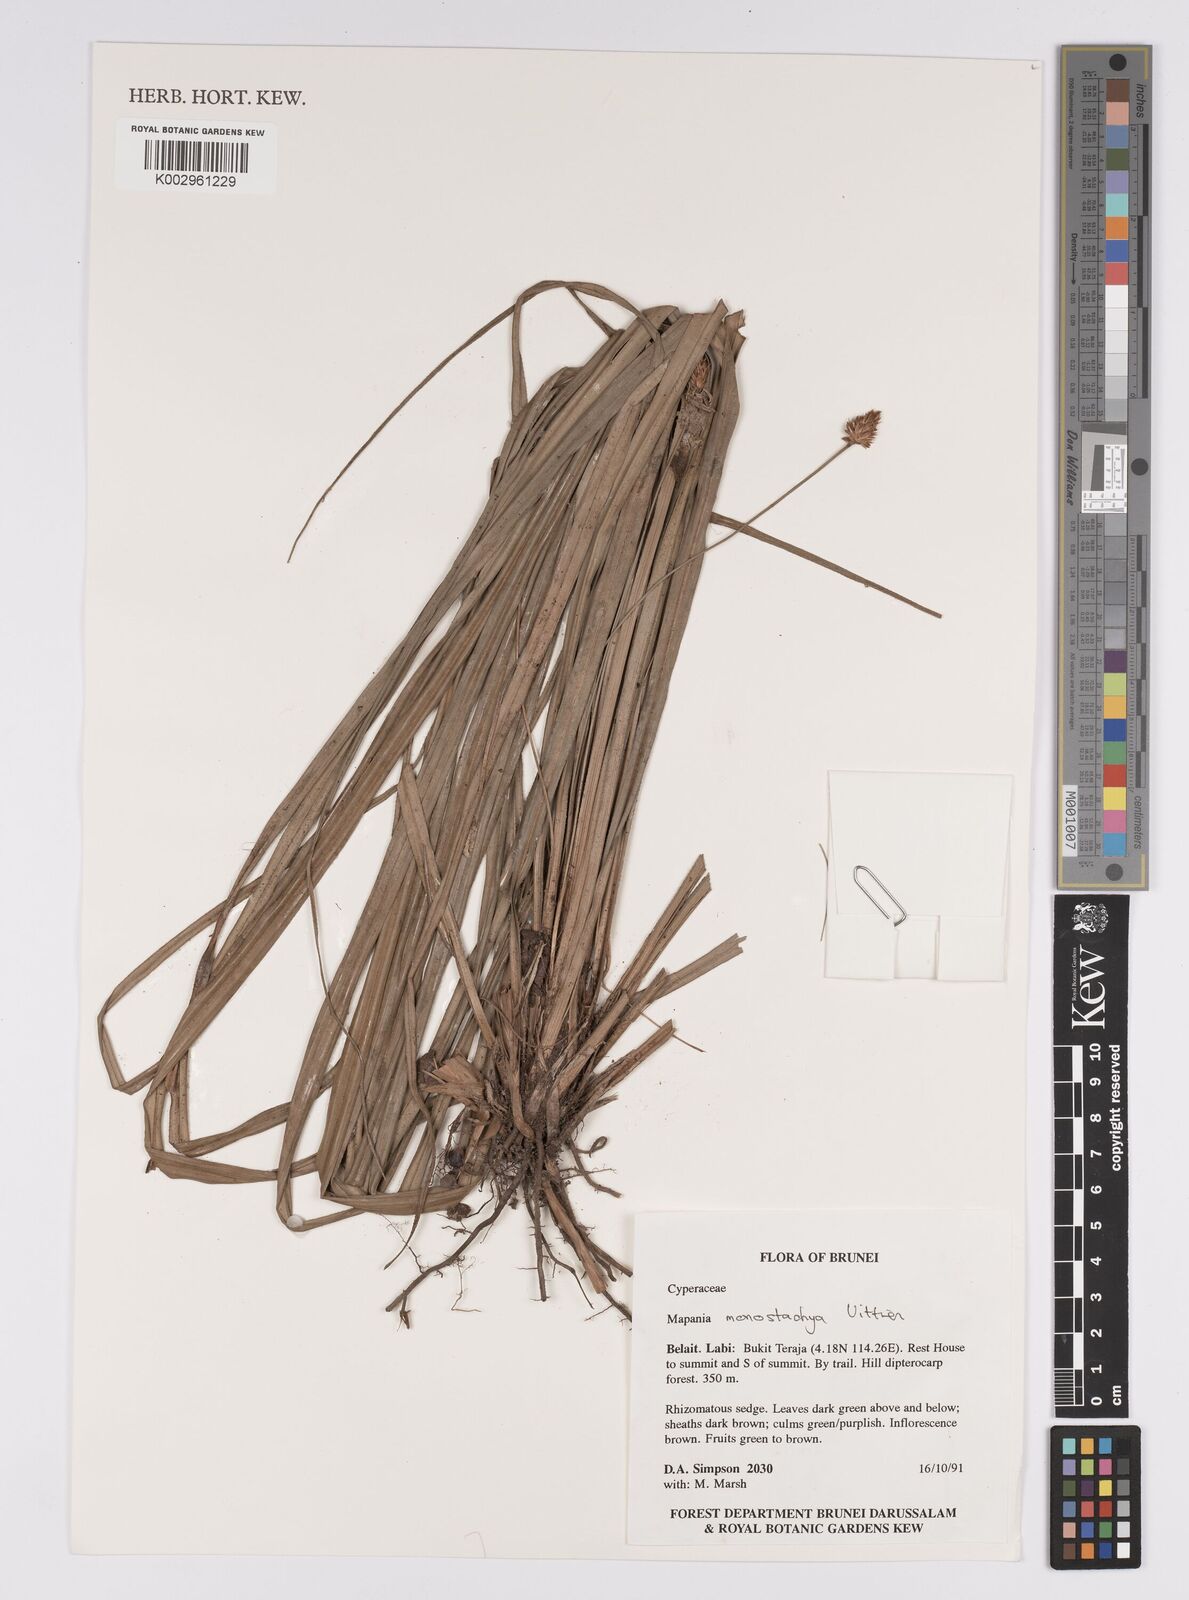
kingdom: Plantae
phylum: Tracheophyta
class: Liliopsida
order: Poales
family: Cyperaceae
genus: Mapania
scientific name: Mapania monostachya
